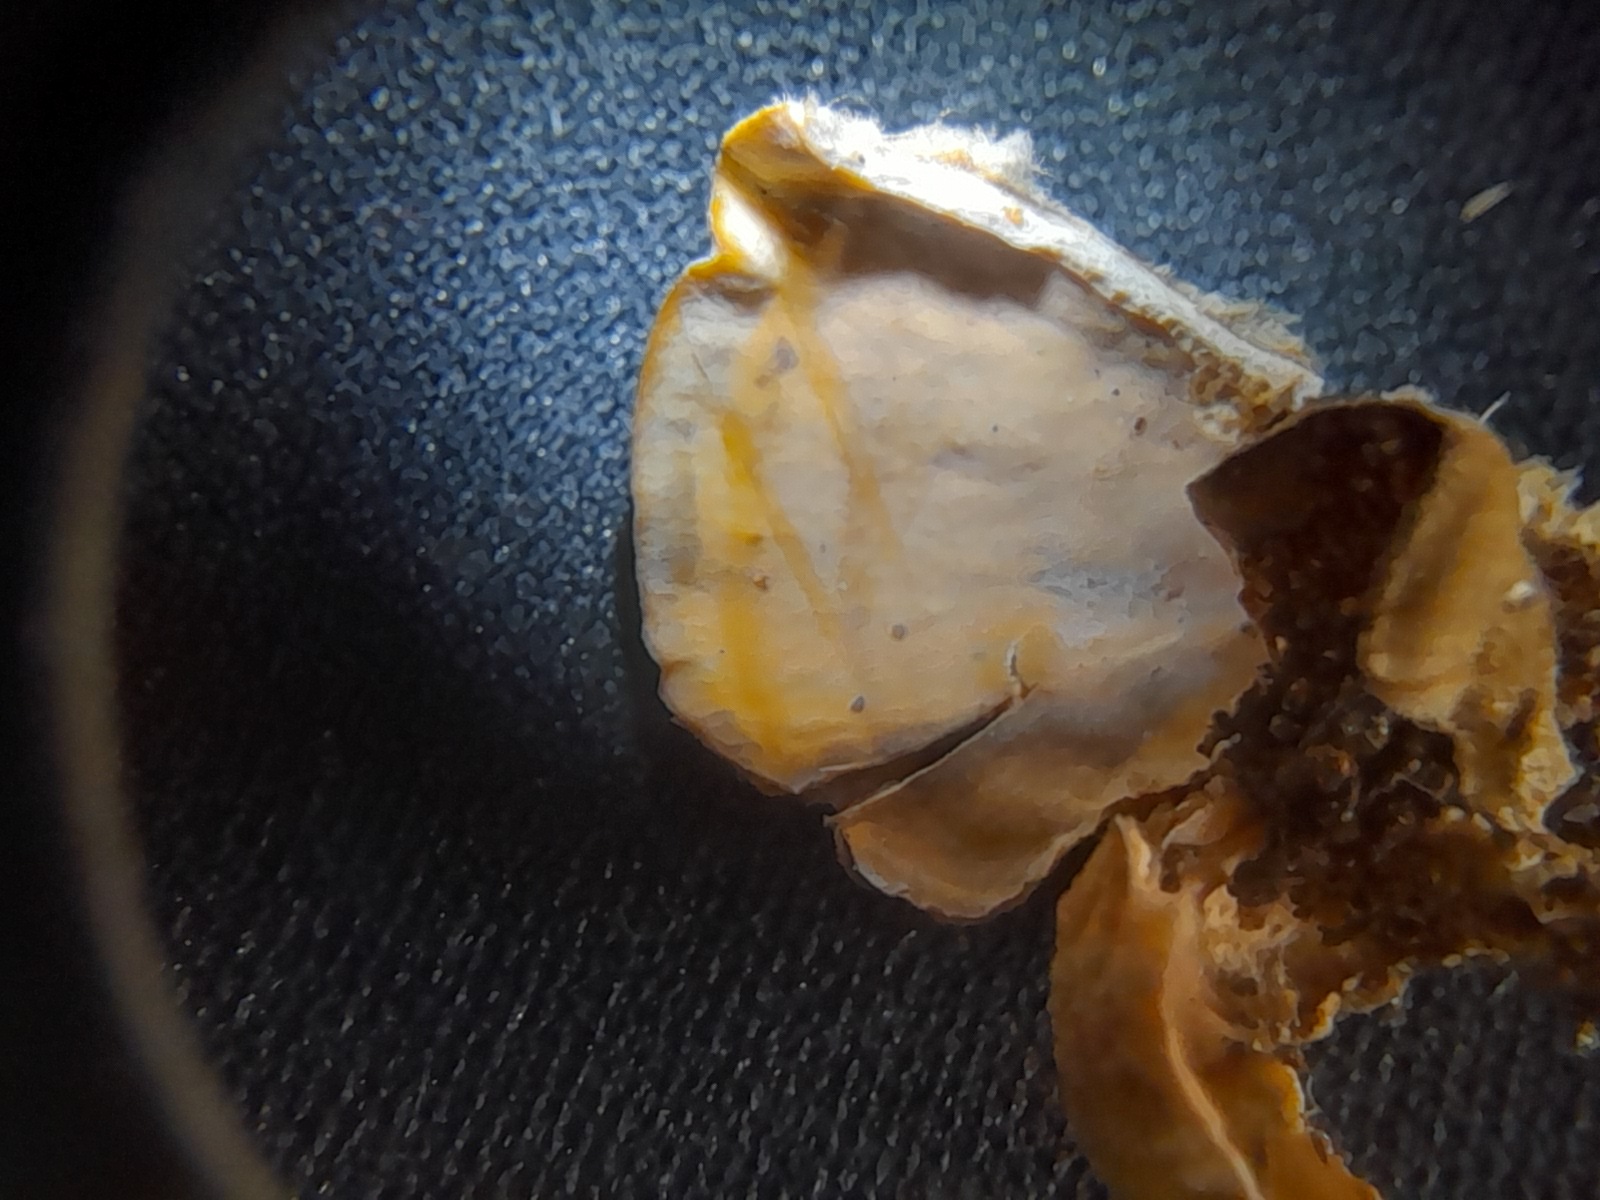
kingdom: Fungi
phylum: Basidiomycota
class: Agaricomycetes
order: Russulales
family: Stereaceae
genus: Stereum
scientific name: Stereum subtomentosum
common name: smuk lædersvamp
